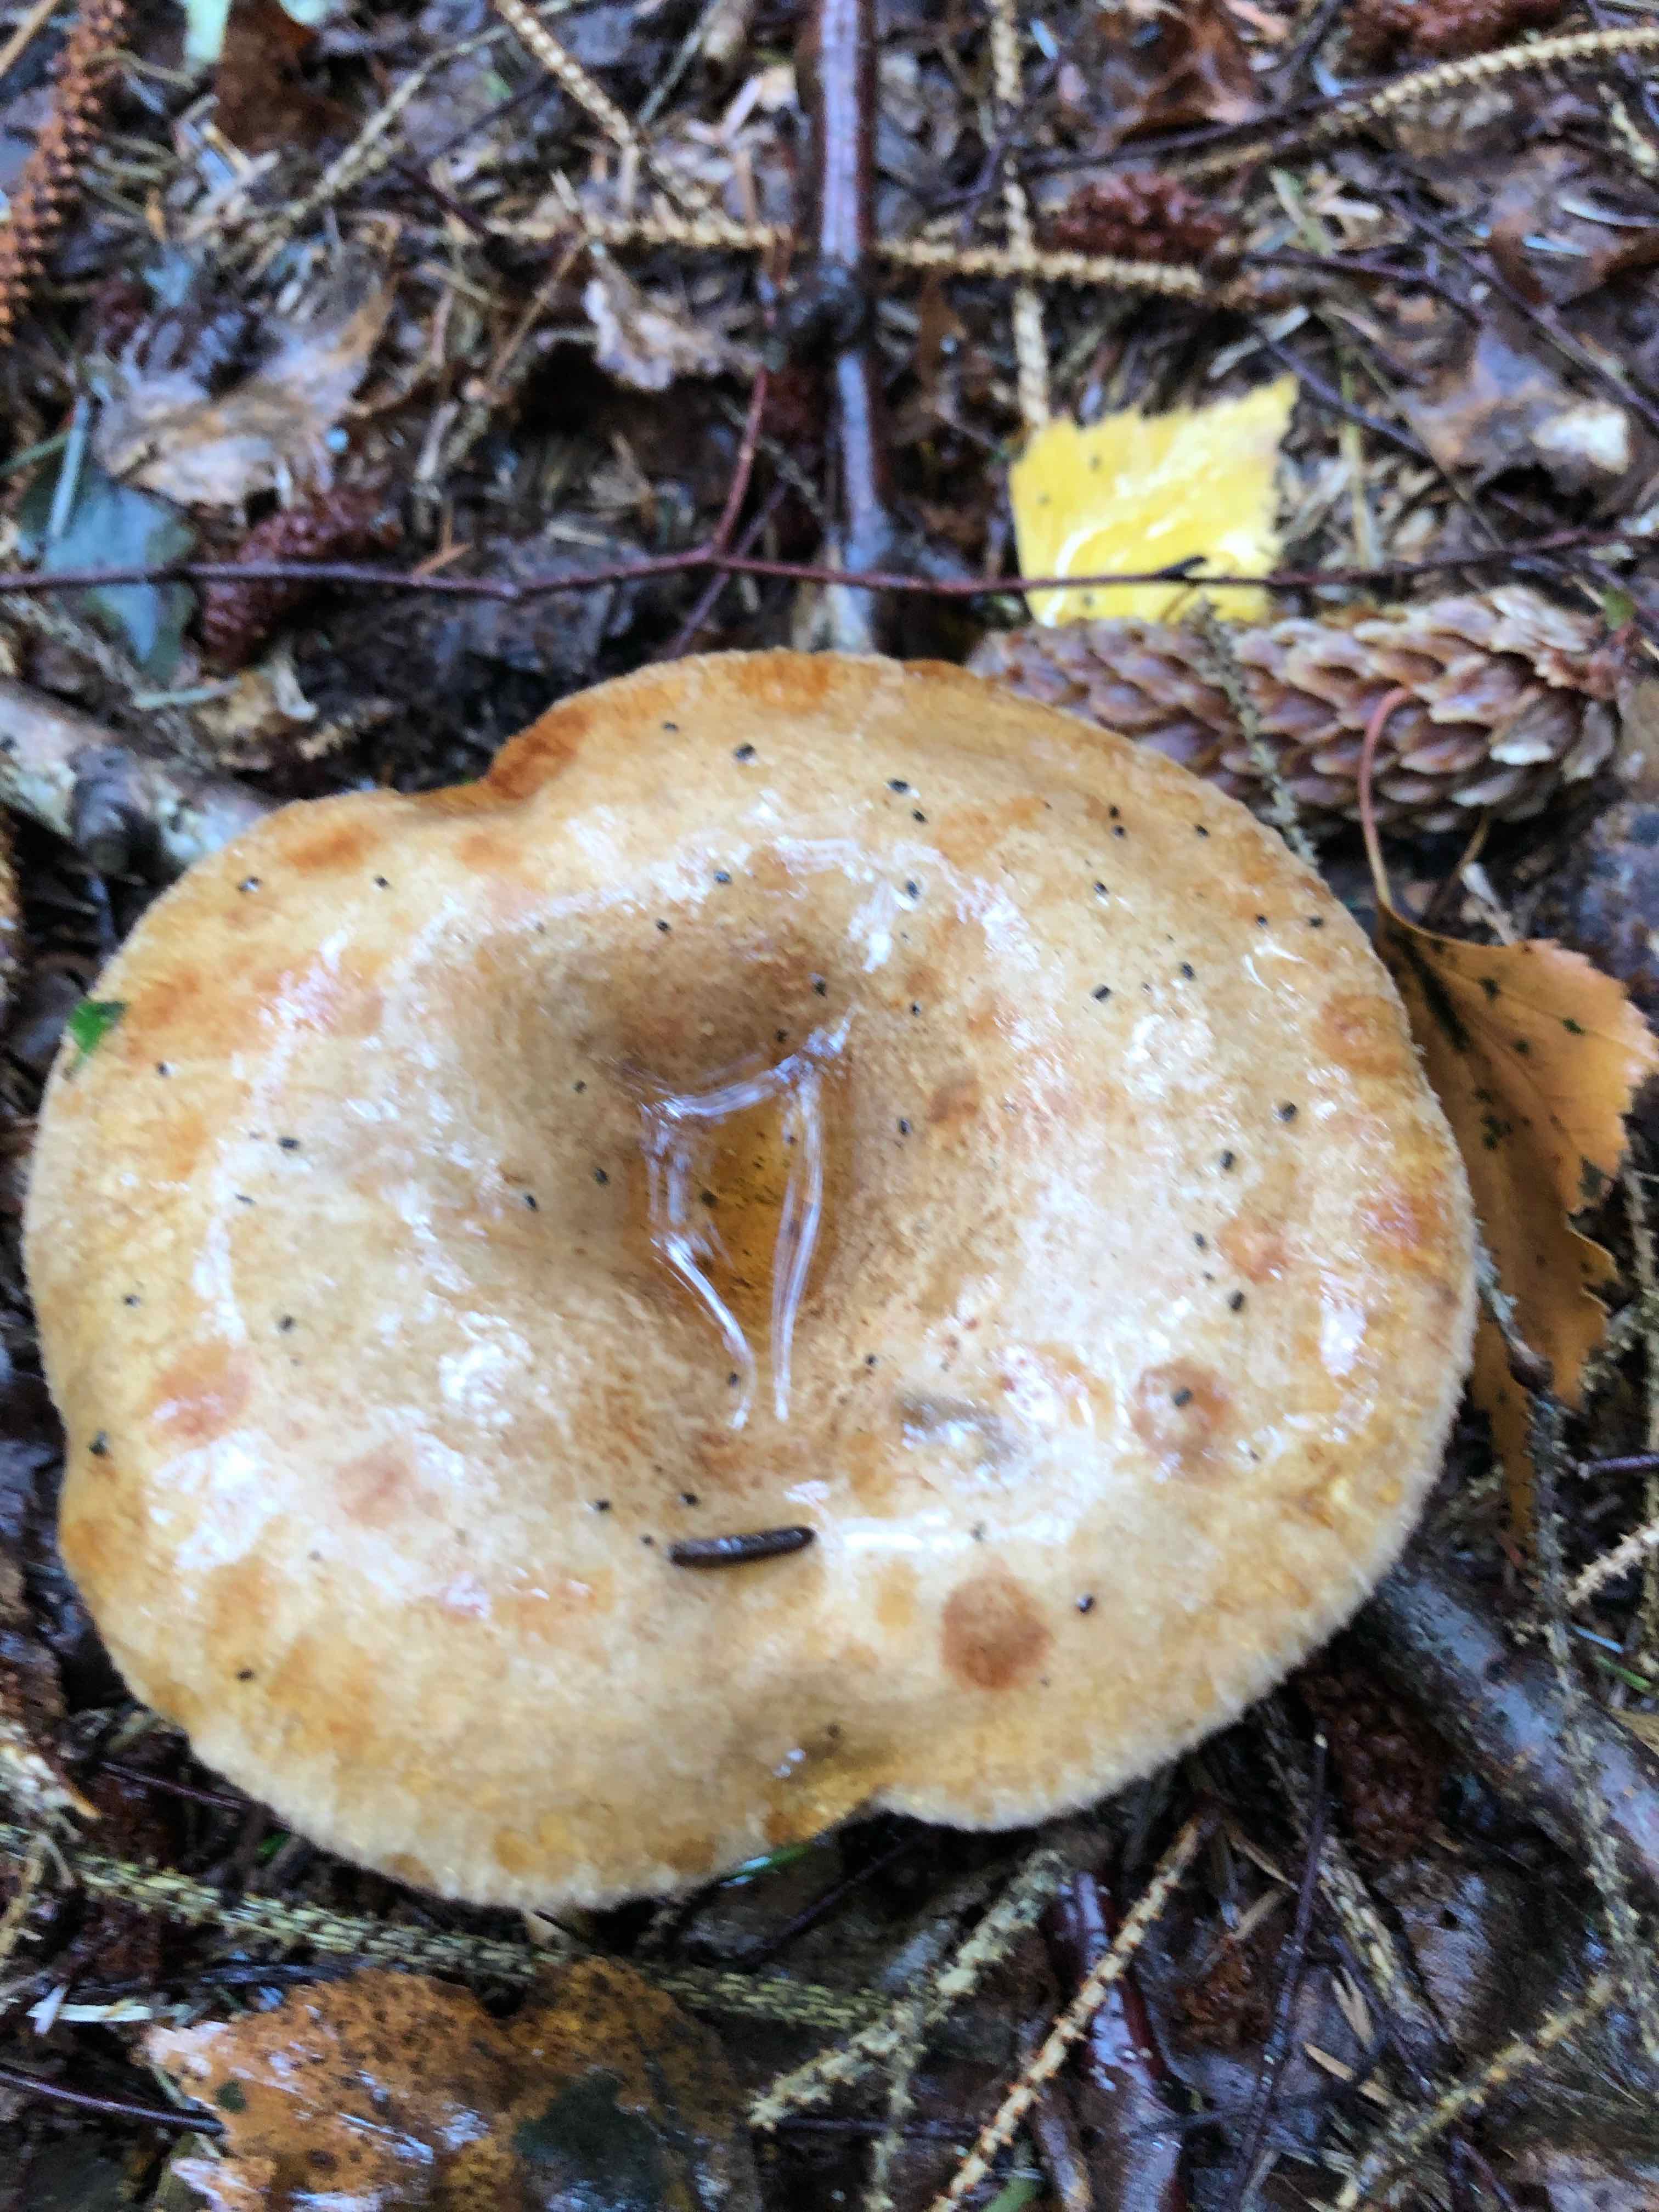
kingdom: Fungi
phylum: Basidiomycota
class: Agaricomycetes
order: Boletales
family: Paxillaceae
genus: Paxillus
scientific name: Paxillus involutus
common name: almindelig netbladhat
